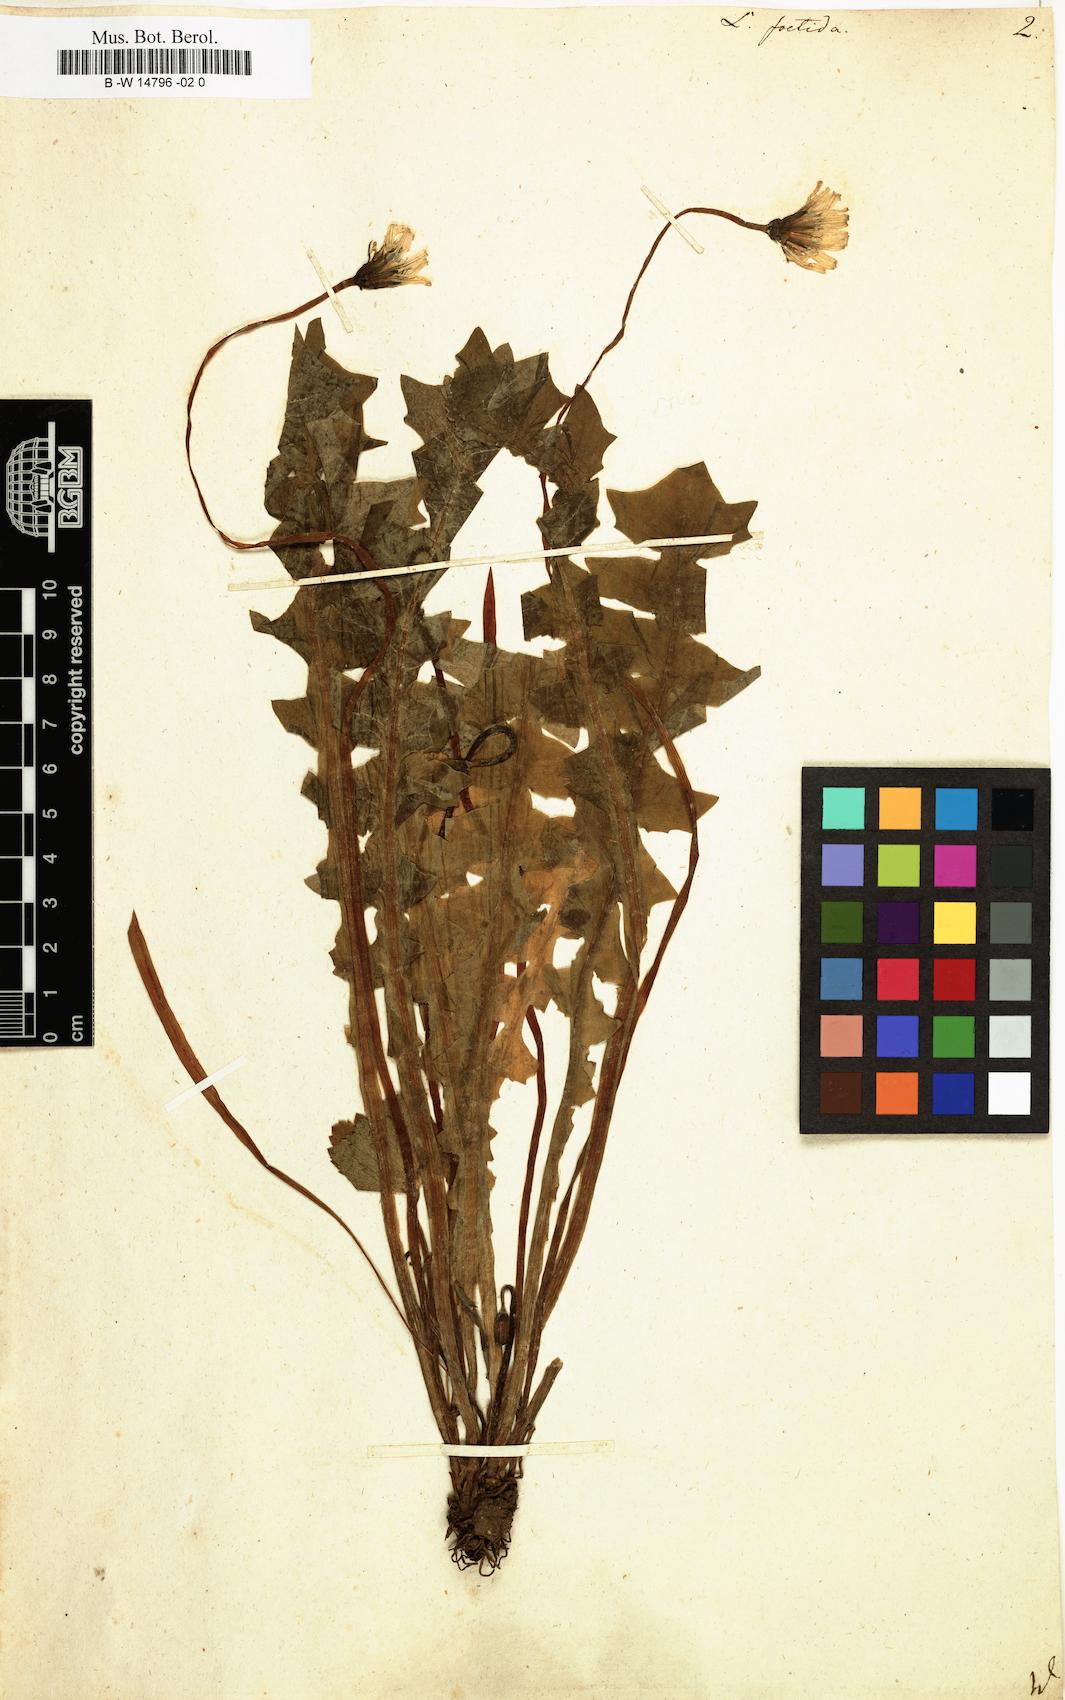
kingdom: Plantae
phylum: Tracheophyta
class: Magnoliopsida
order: Asterales
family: Asteraceae
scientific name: Asteraceae
